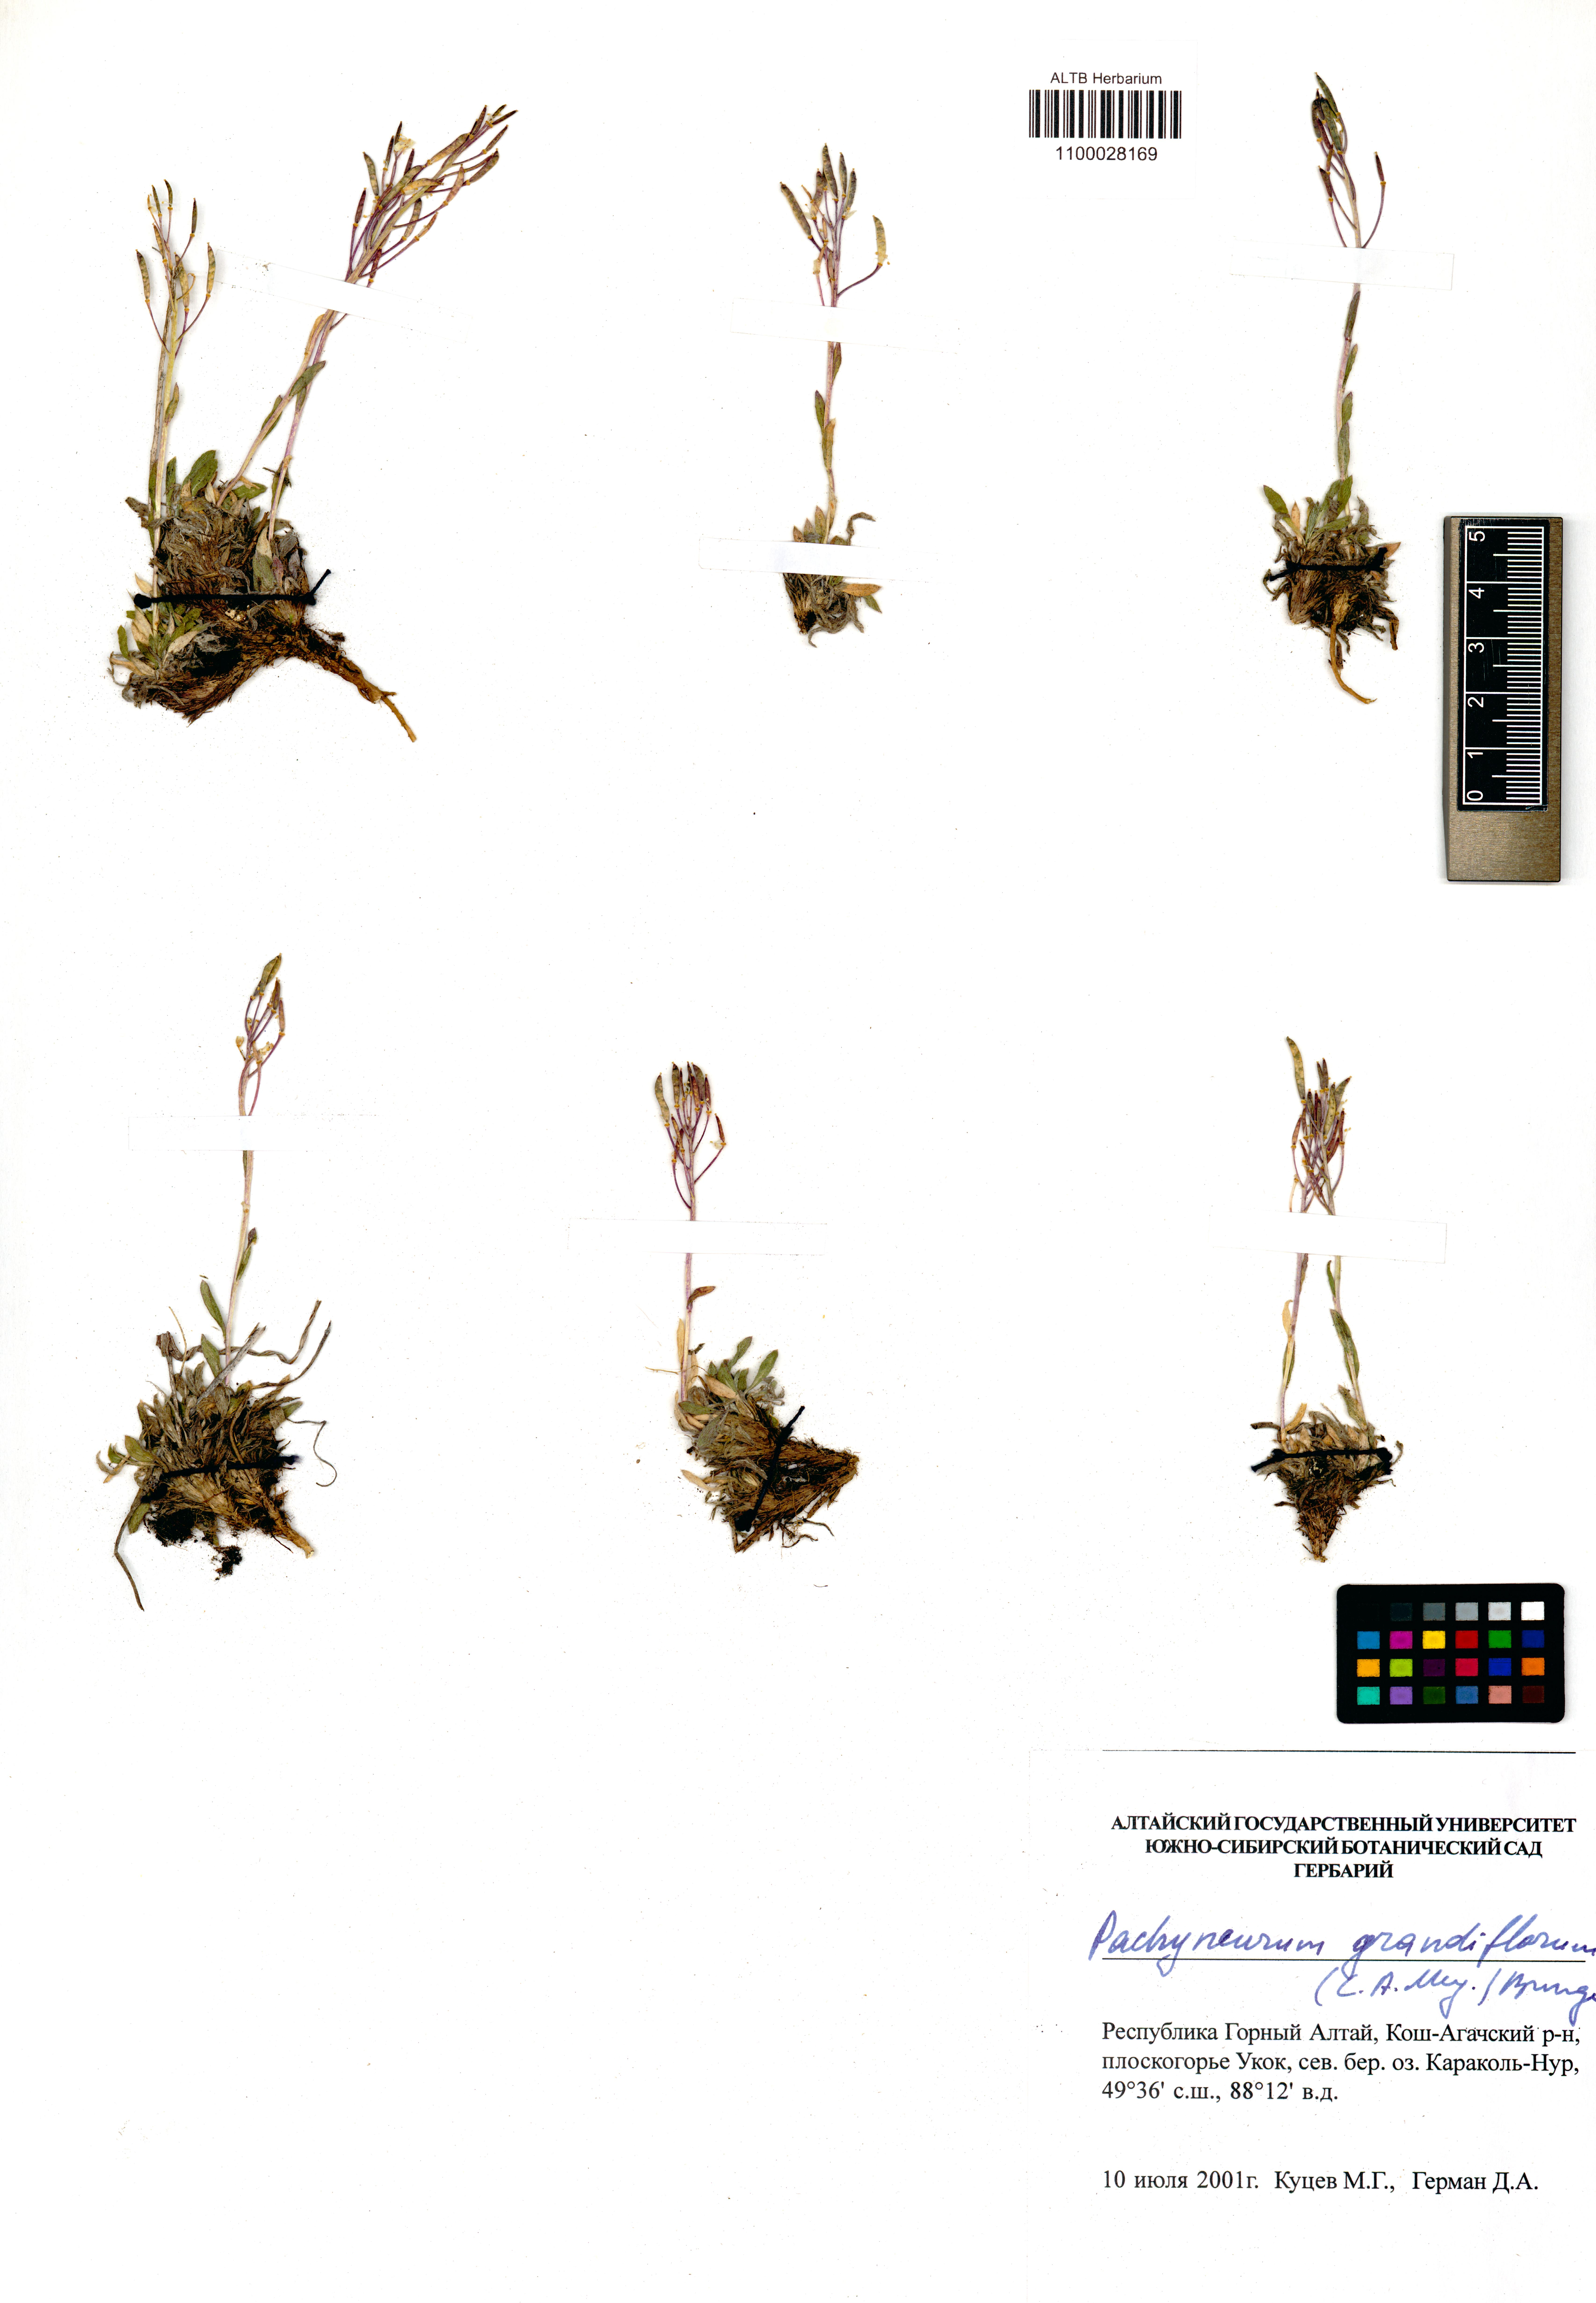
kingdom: Plantae
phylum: Tracheophyta
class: Magnoliopsida
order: Brassicales
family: Brassicaceae
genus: Pachyneurum
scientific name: Pachyneurum grandiflorum
